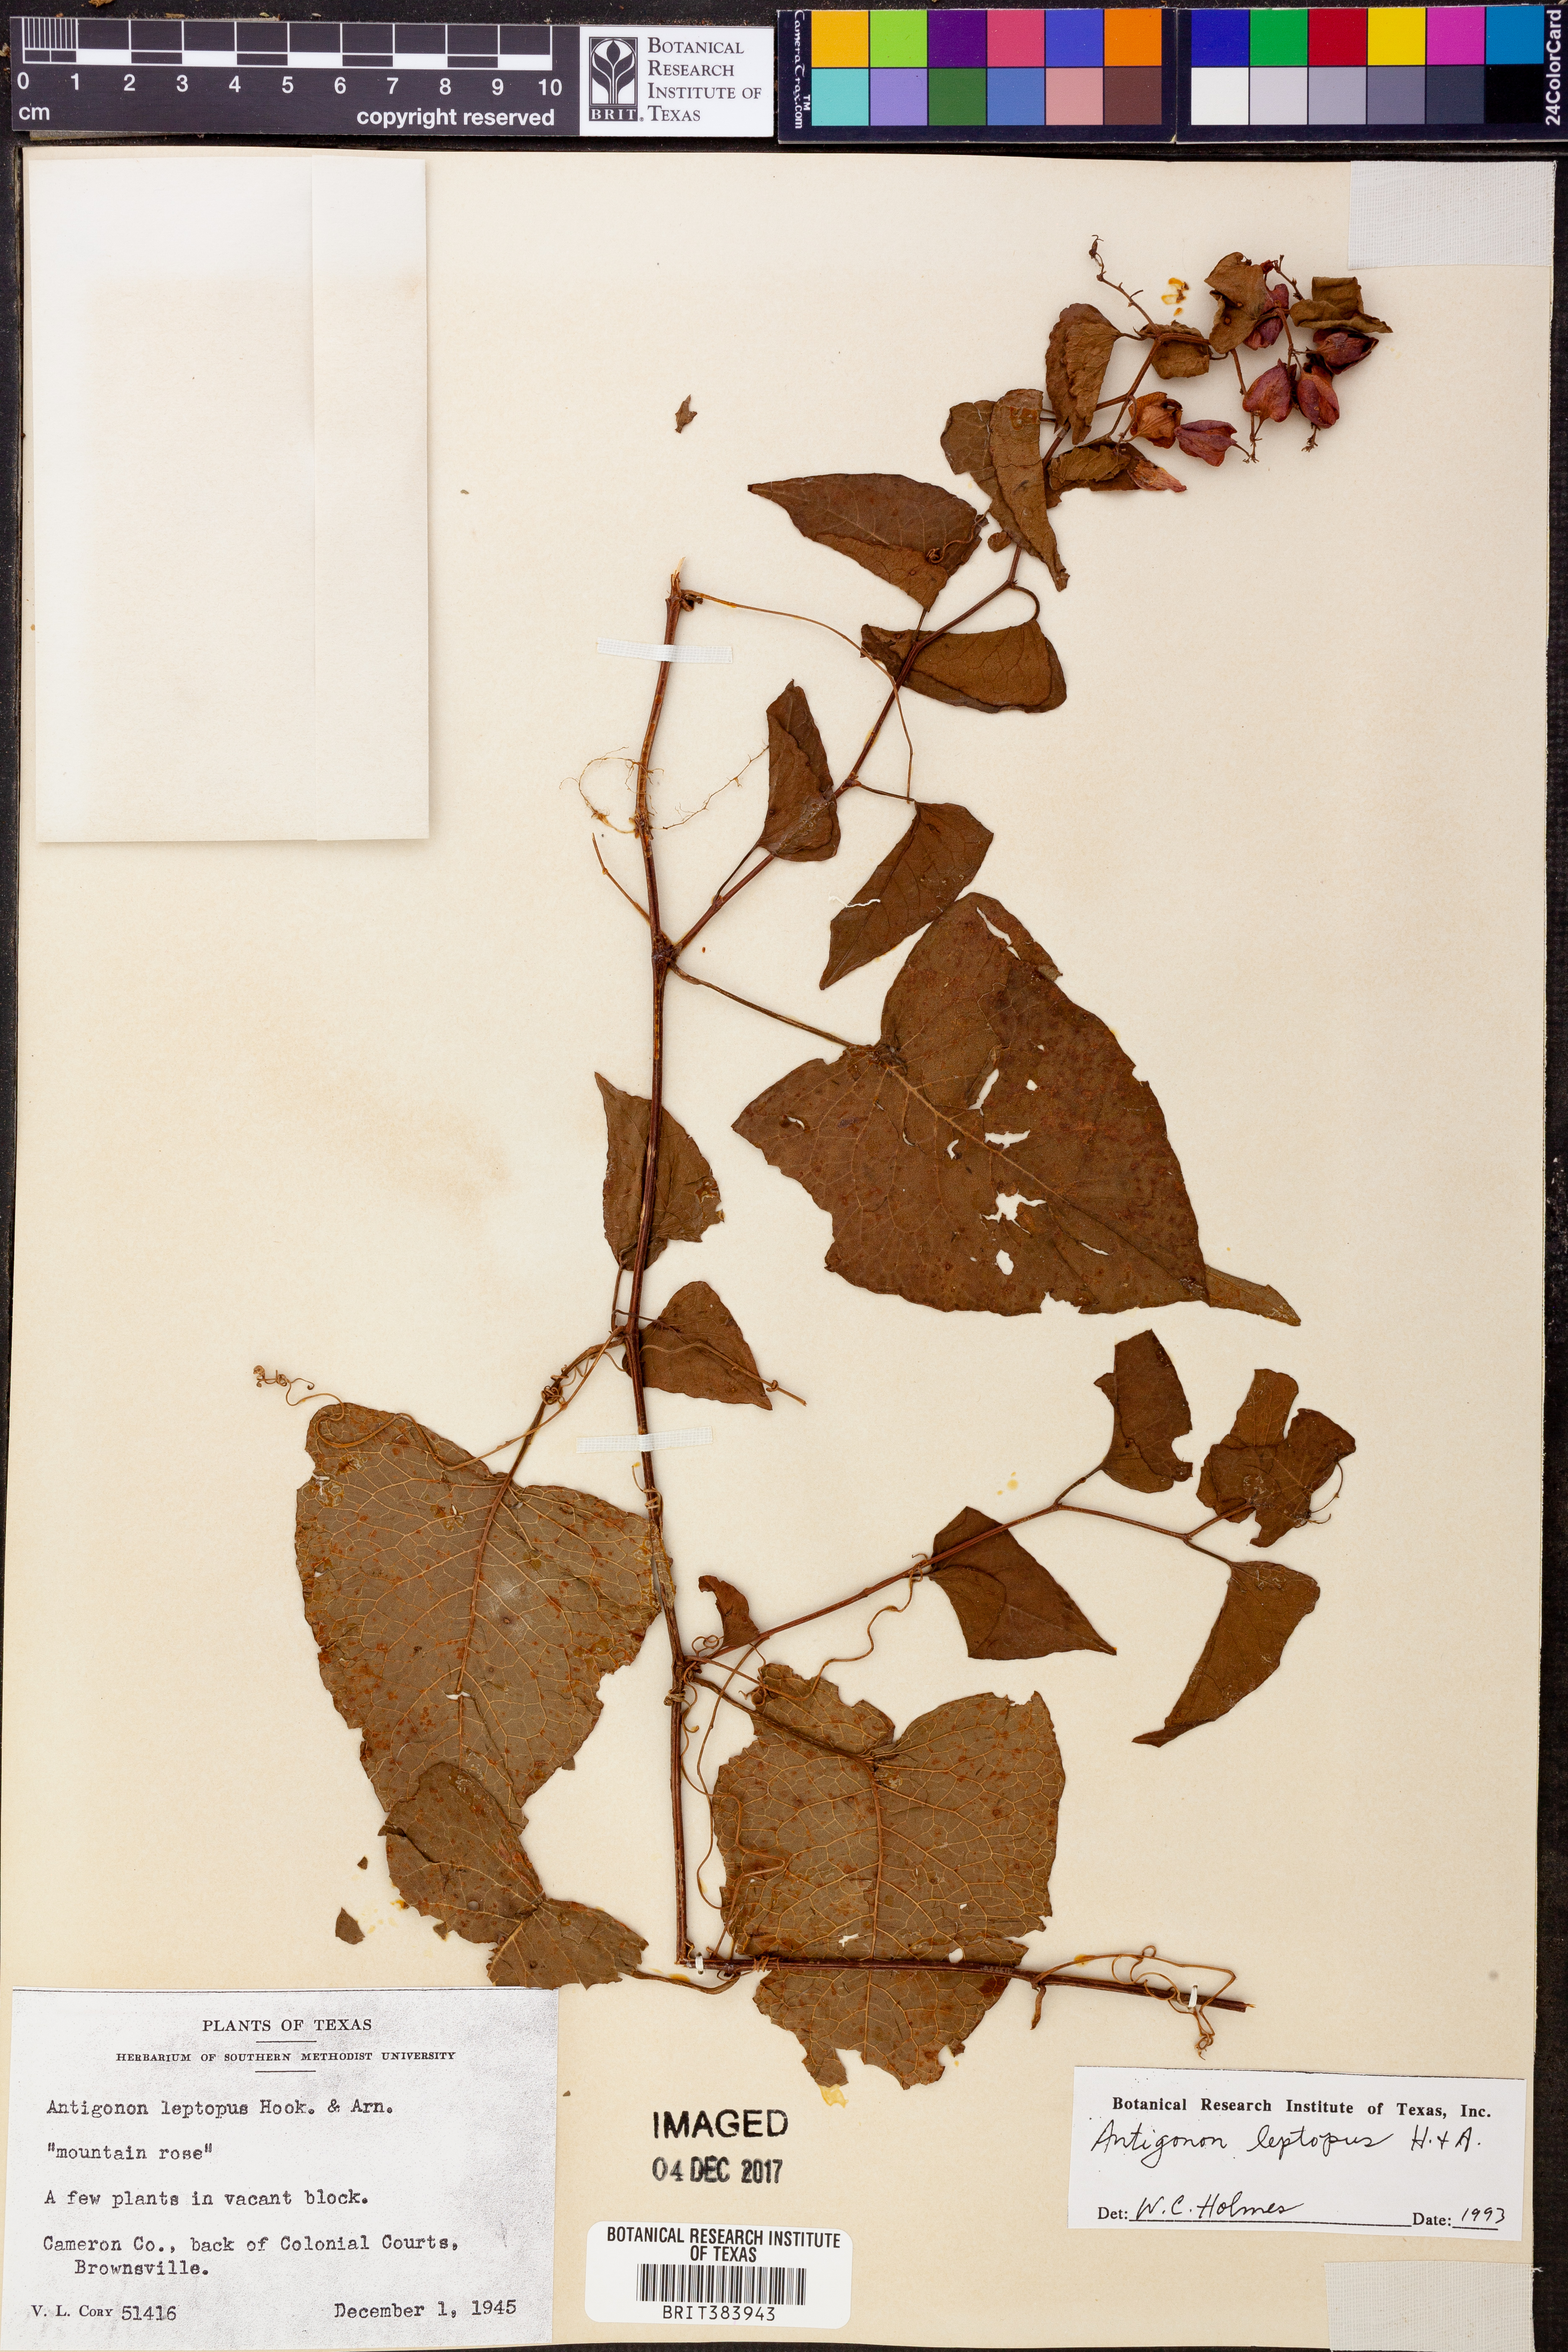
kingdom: Plantae
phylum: Tracheophyta
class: Magnoliopsida
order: Caryophyllales
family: Polygonaceae
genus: Antigonon
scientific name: Antigonon leptopus
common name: Coral vine
